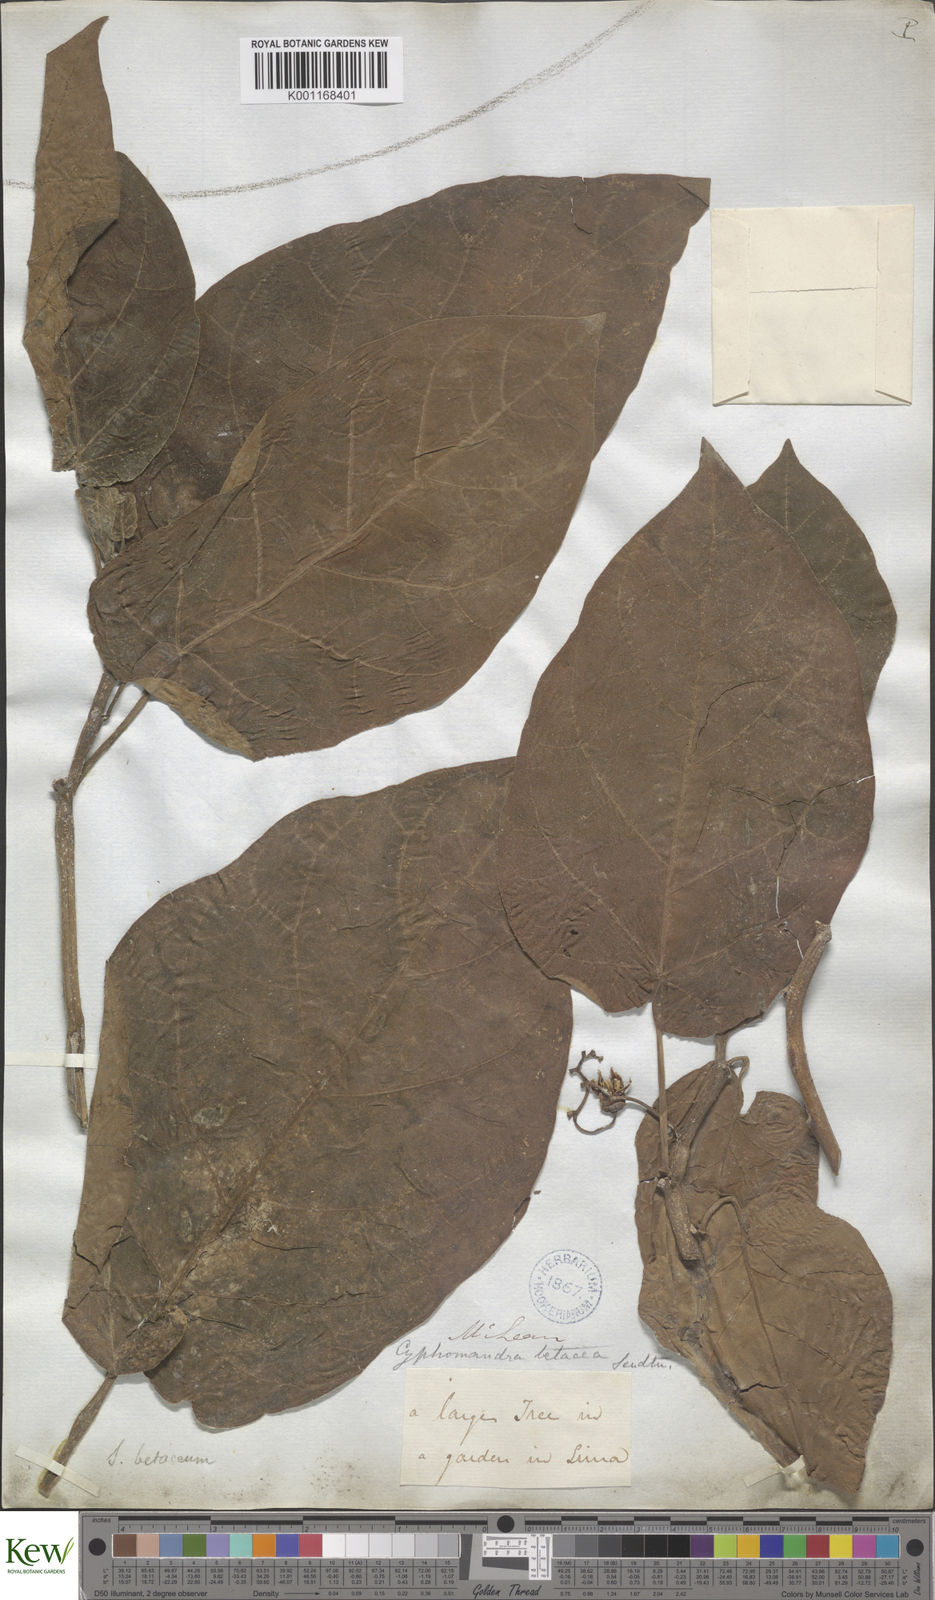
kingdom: Plantae
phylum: Tracheophyta
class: Magnoliopsida
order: Solanales
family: Solanaceae
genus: Solanum
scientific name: Solanum betaceum
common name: Tamarillo
